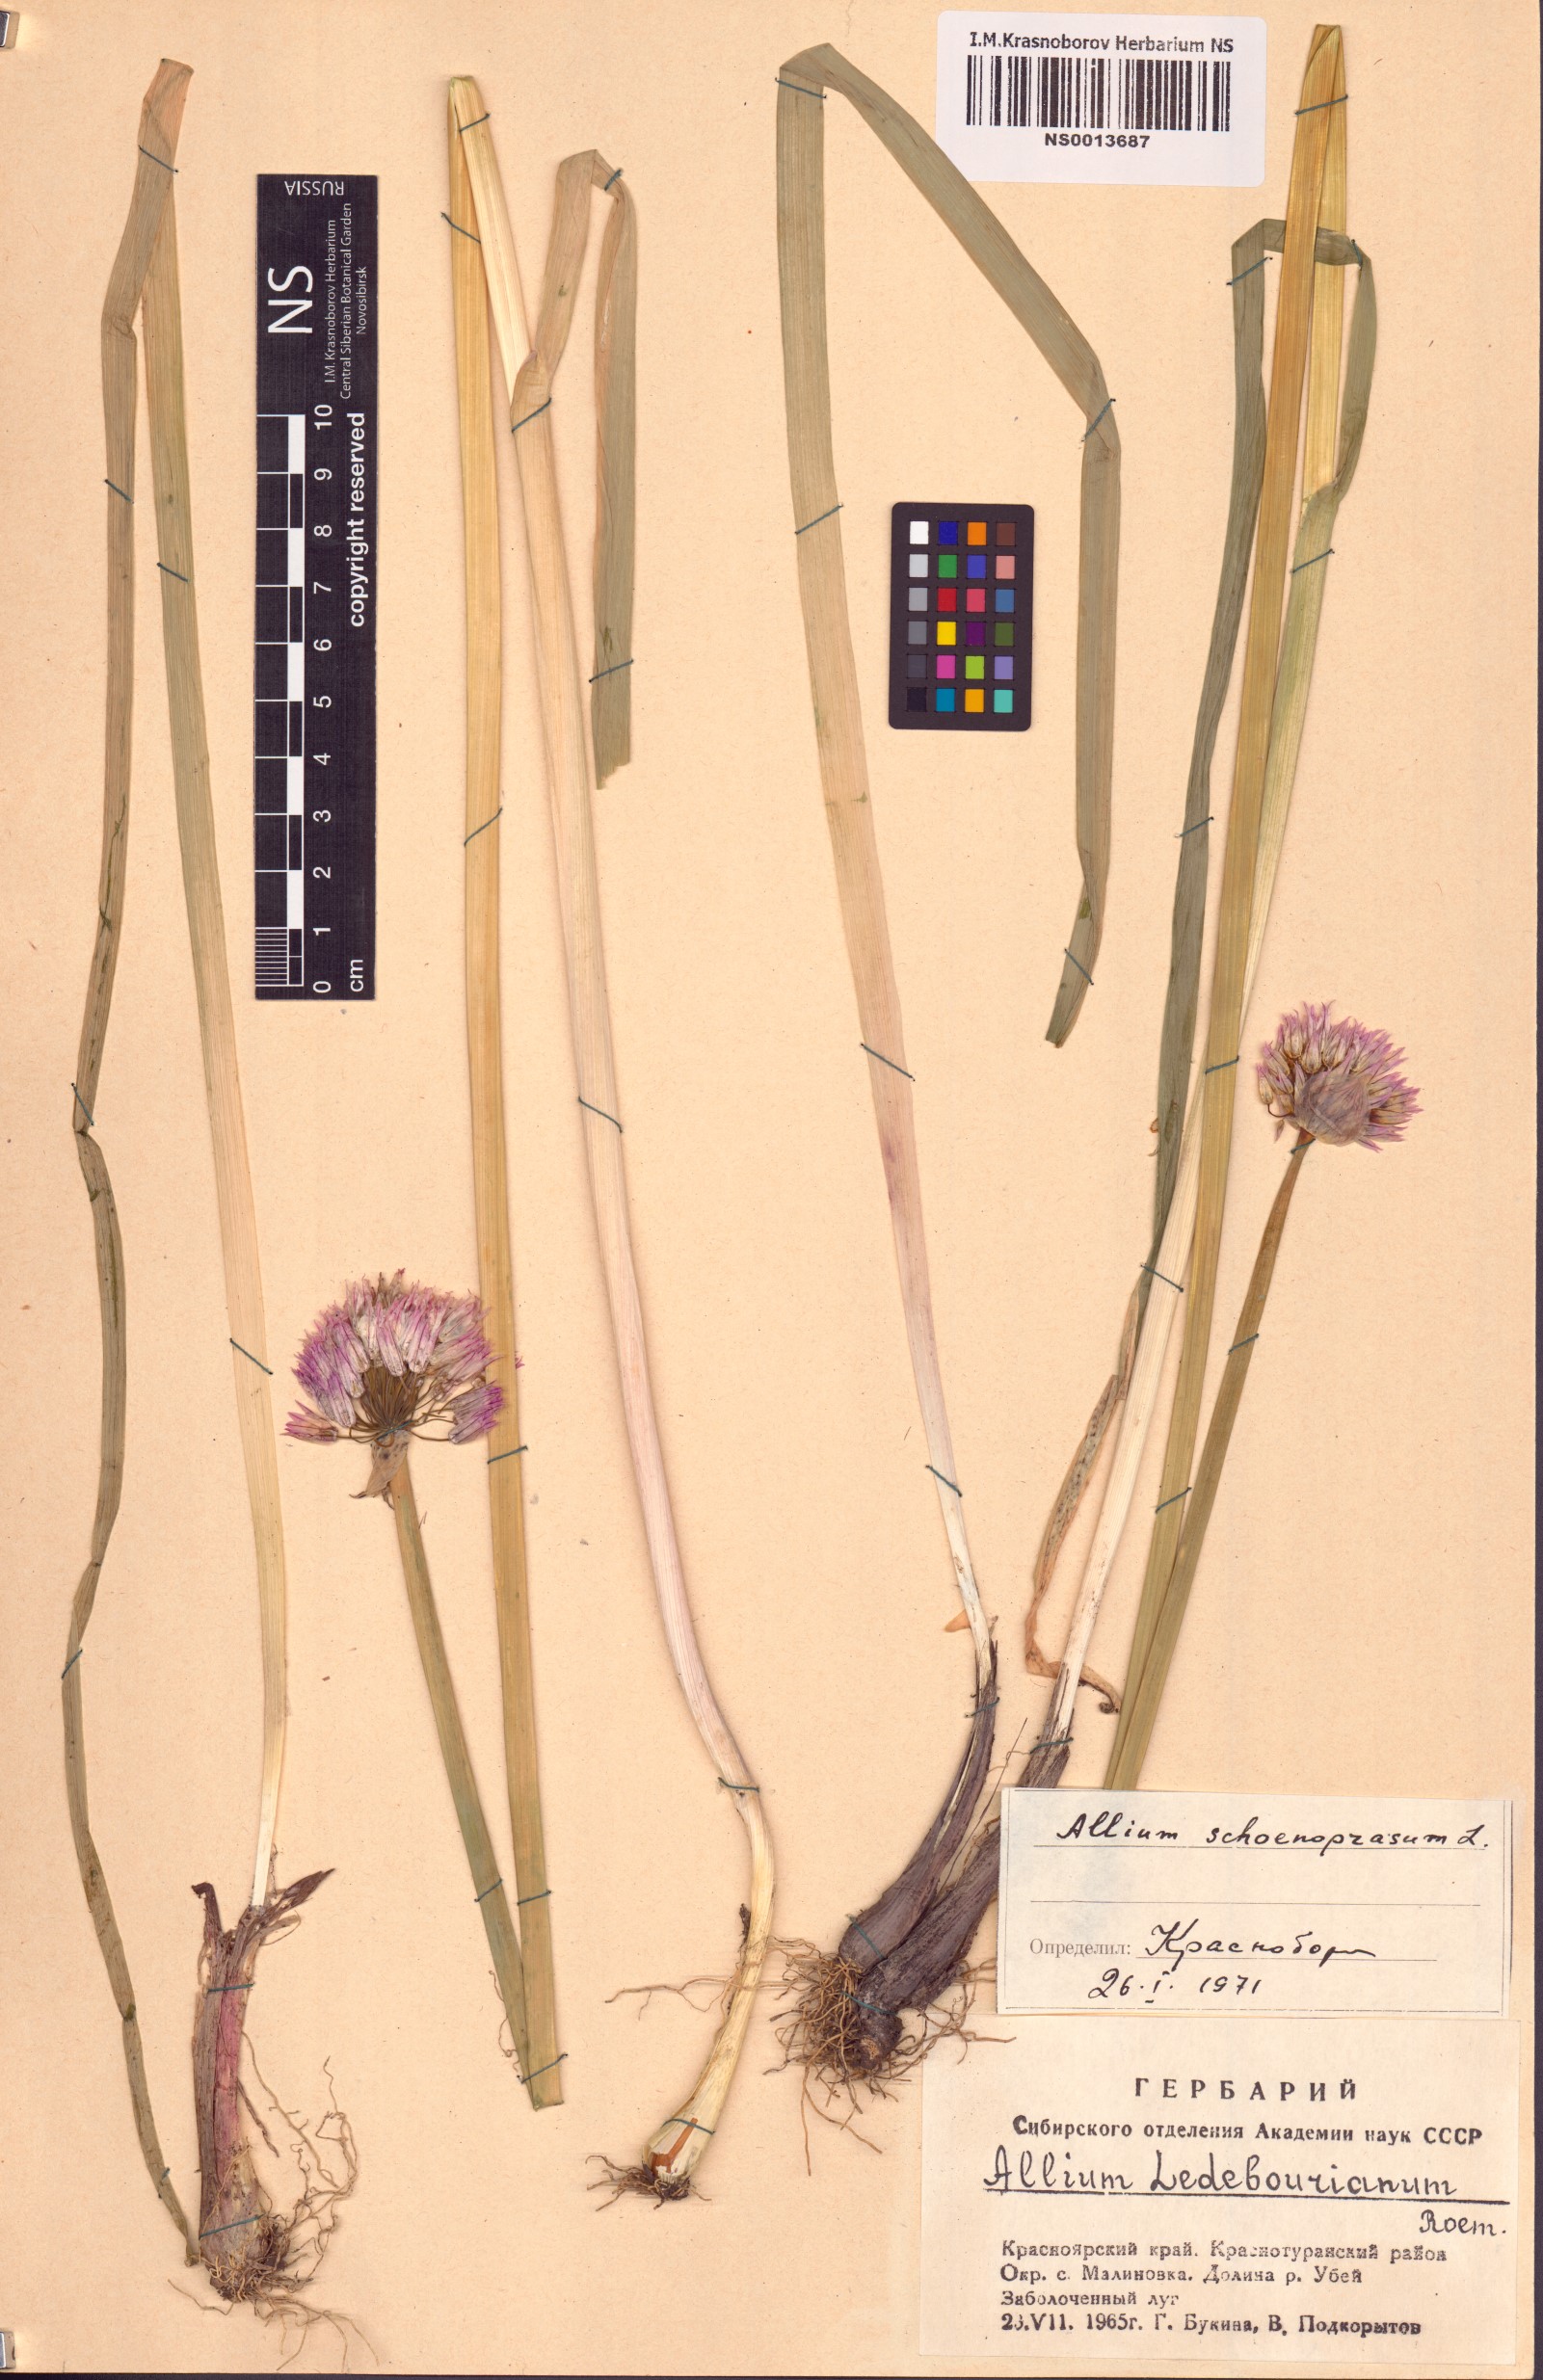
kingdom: Plantae
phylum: Tracheophyta
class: Liliopsida
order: Asparagales
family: Amaryllidaceae
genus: Allium
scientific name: Allium schoenoprasum
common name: Chives
